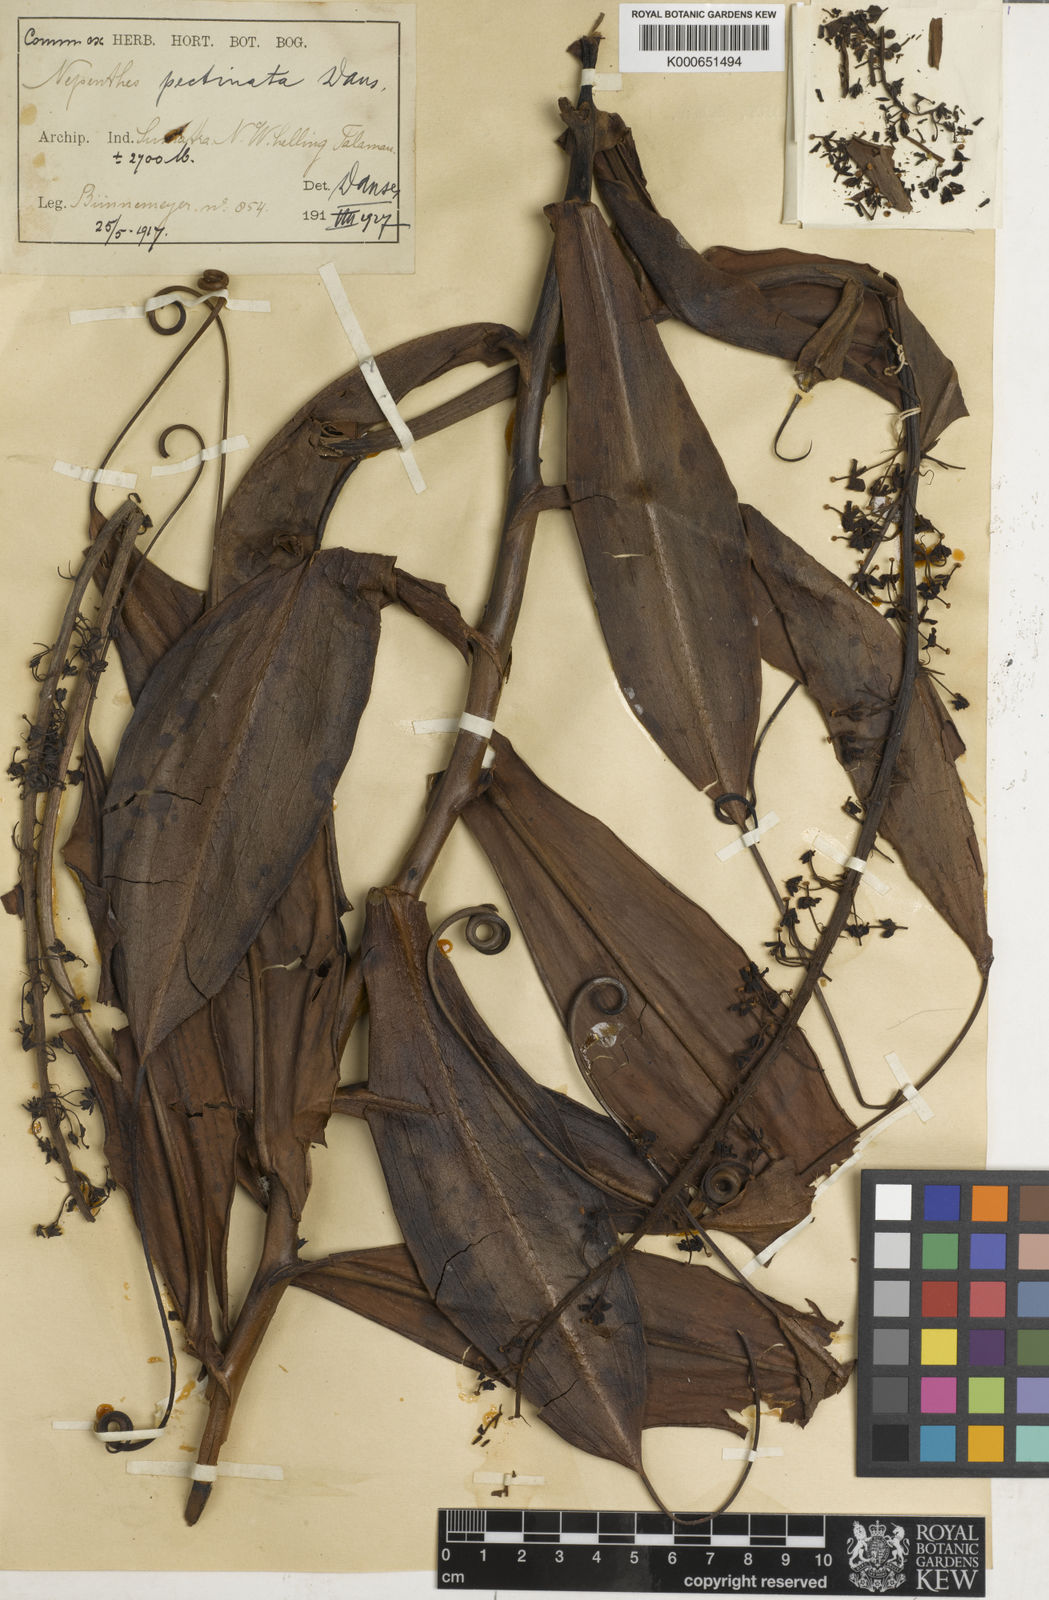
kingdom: Plantae
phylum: Tracheophyta
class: Magnoliopsida
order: Caryophyllales
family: Nepenthaceae
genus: Nepenthes
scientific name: Nepenthes pectinata
